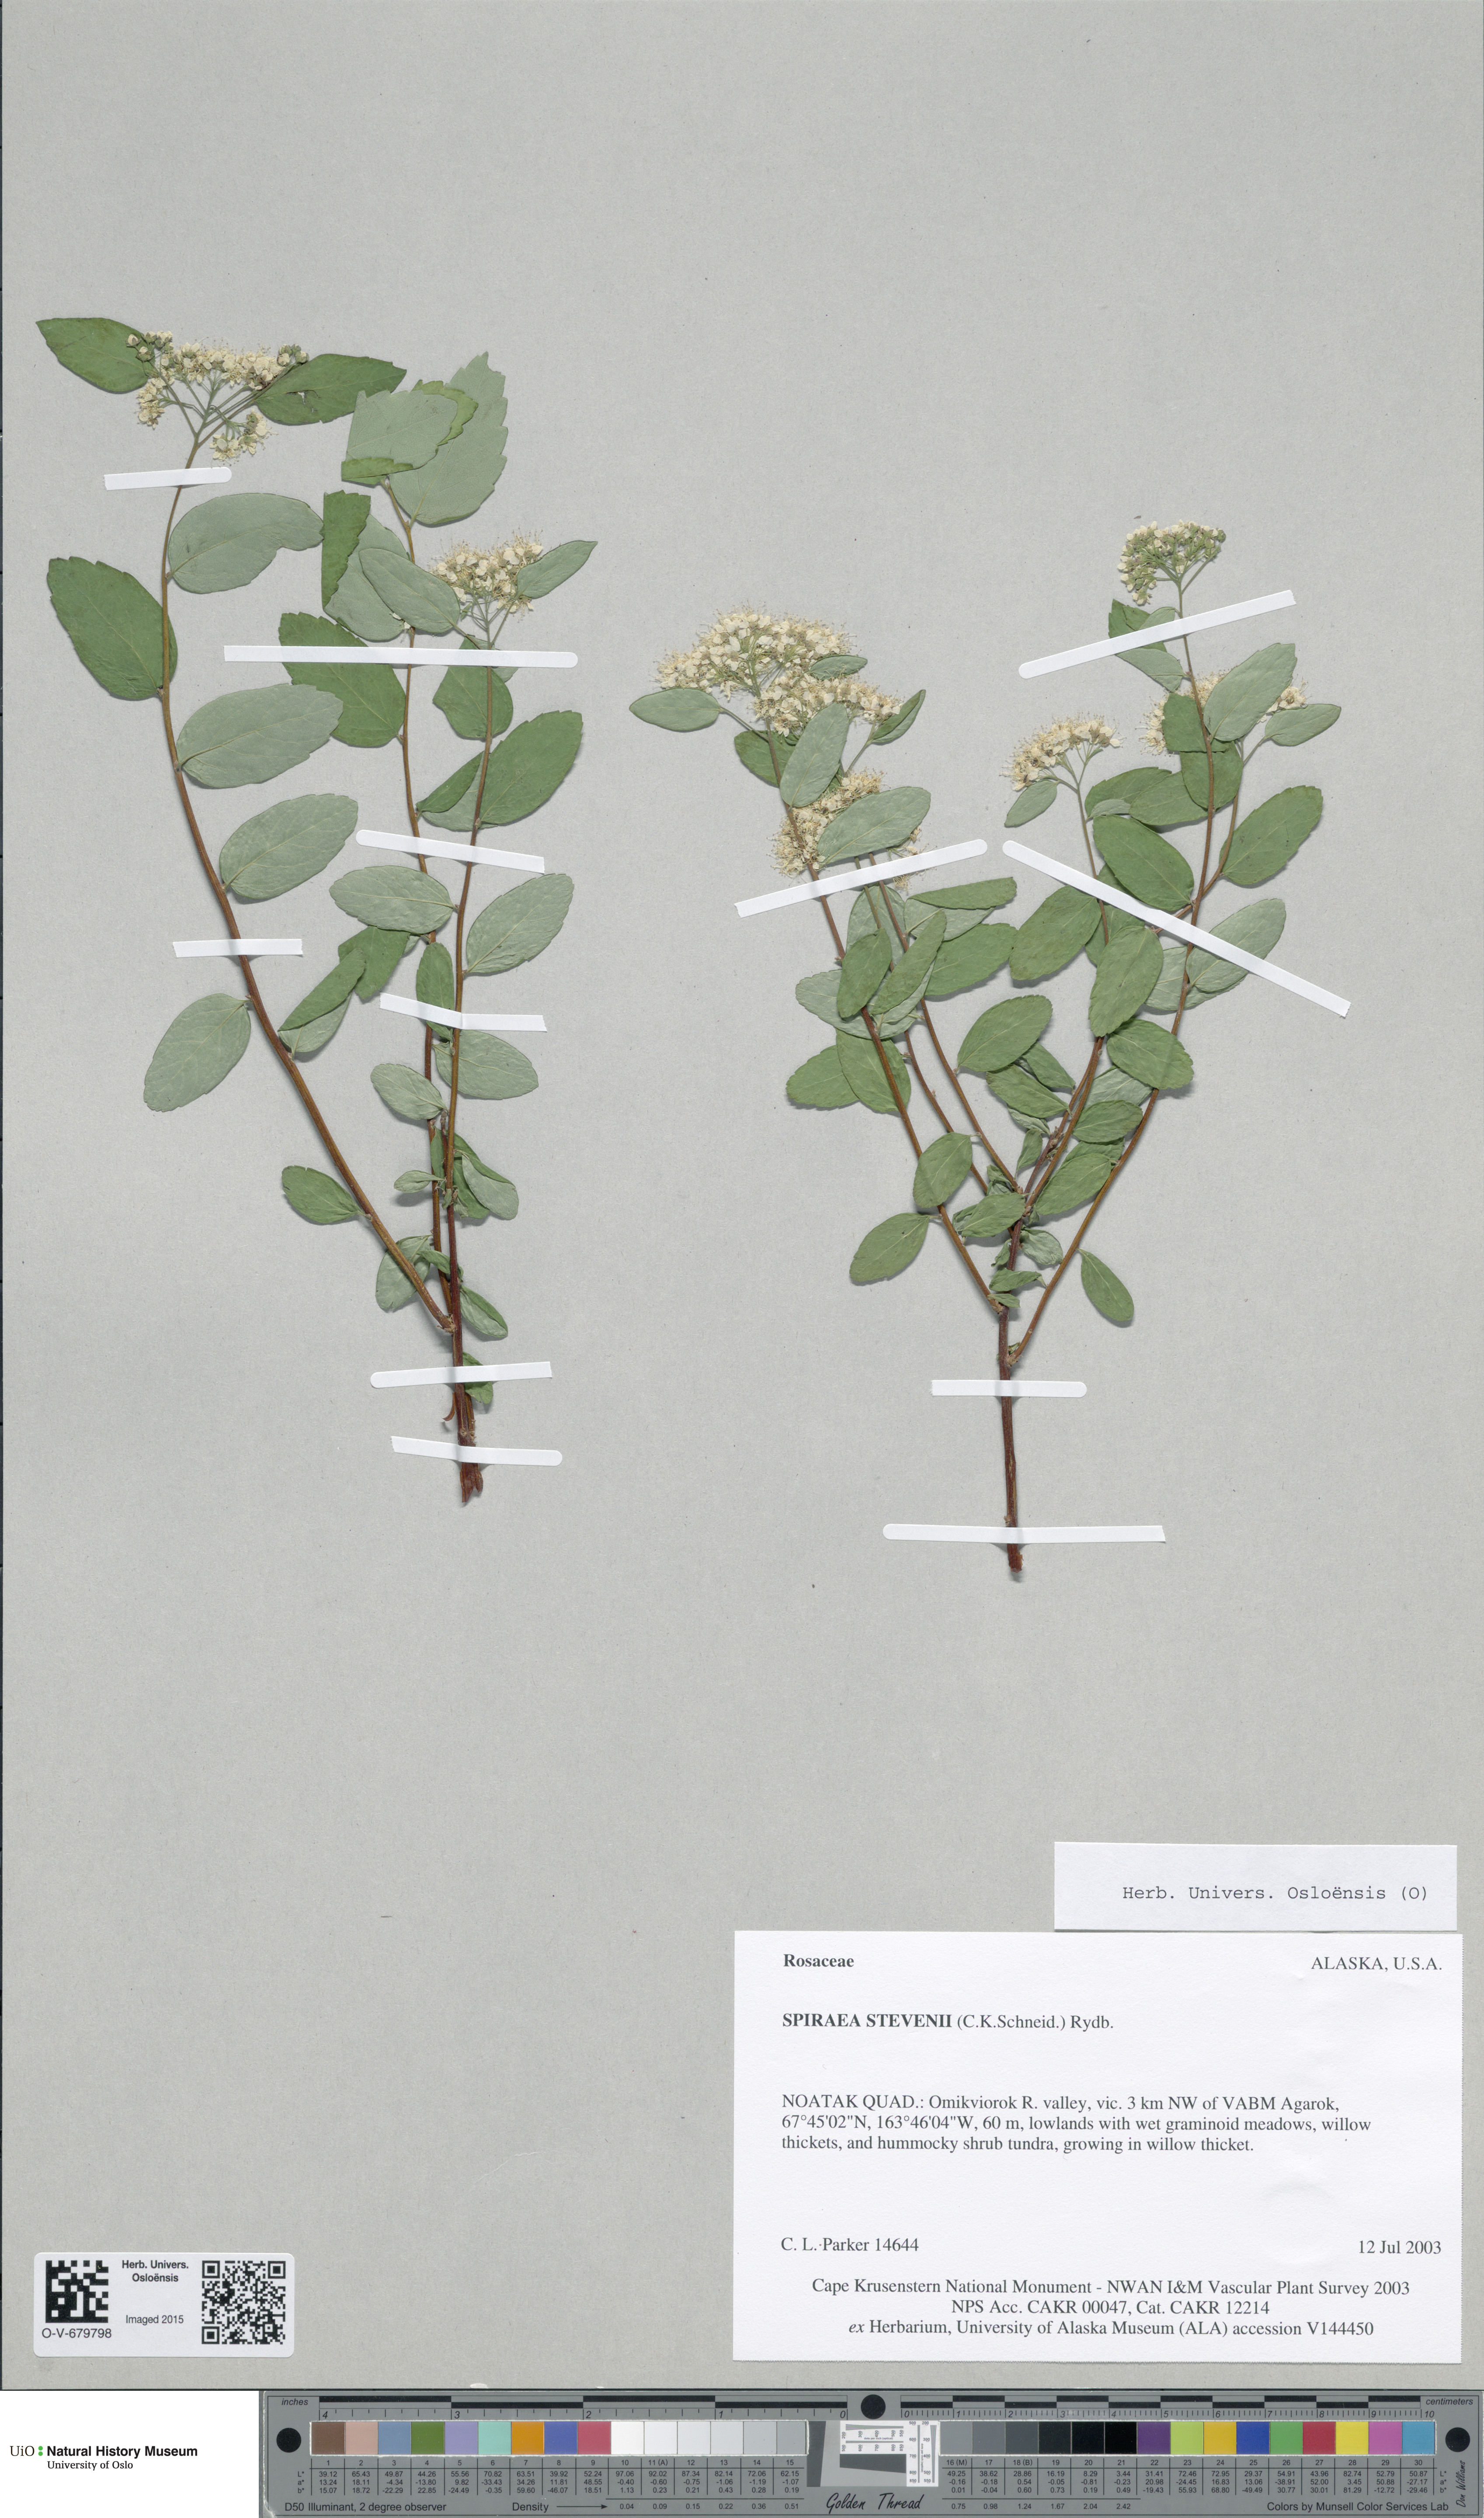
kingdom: Plantae
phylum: Tracheophyta
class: Magnoliopsida
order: Rosales
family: Rosaceae
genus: Spiraea
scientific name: Spiraea betulifolia
